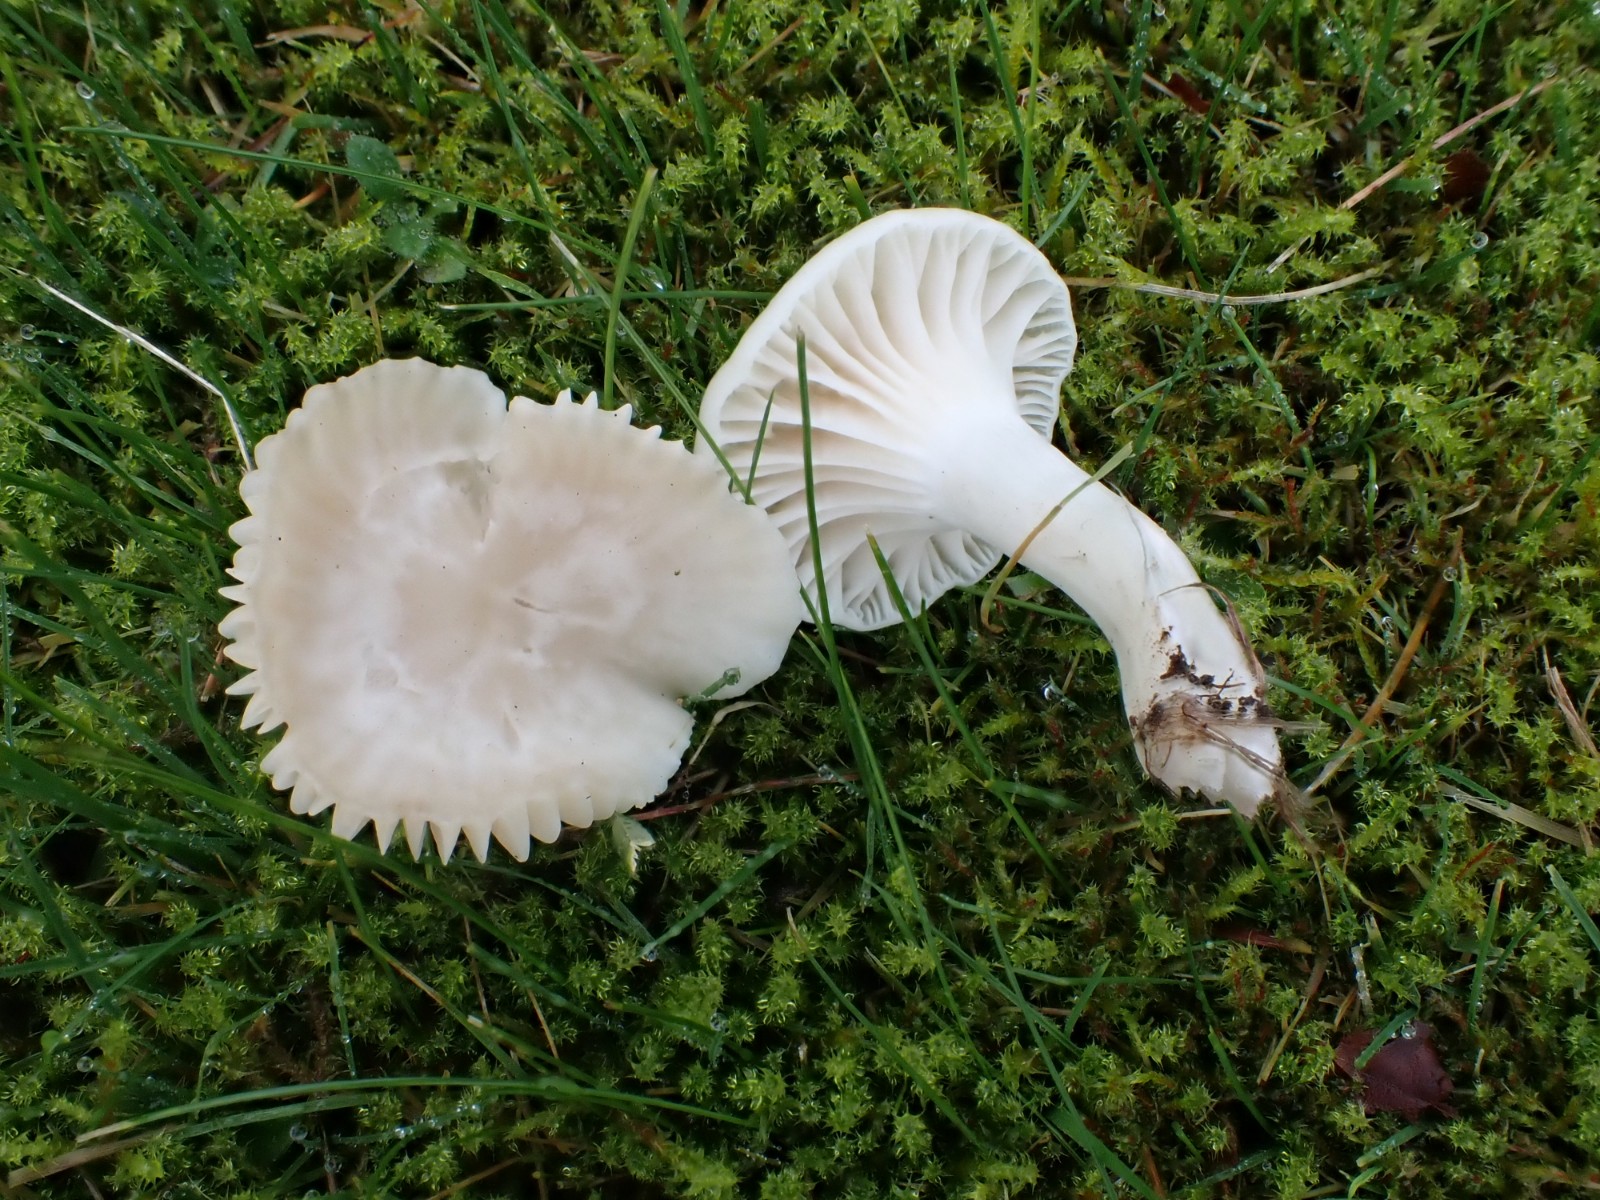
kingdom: Fungi
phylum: Basidiomycota
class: Agaricomycetes
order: Agaricales
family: Hygrophoraceae
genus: Cuphophyllus
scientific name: Cuphophyllus virgineus
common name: snehvid vokshat
